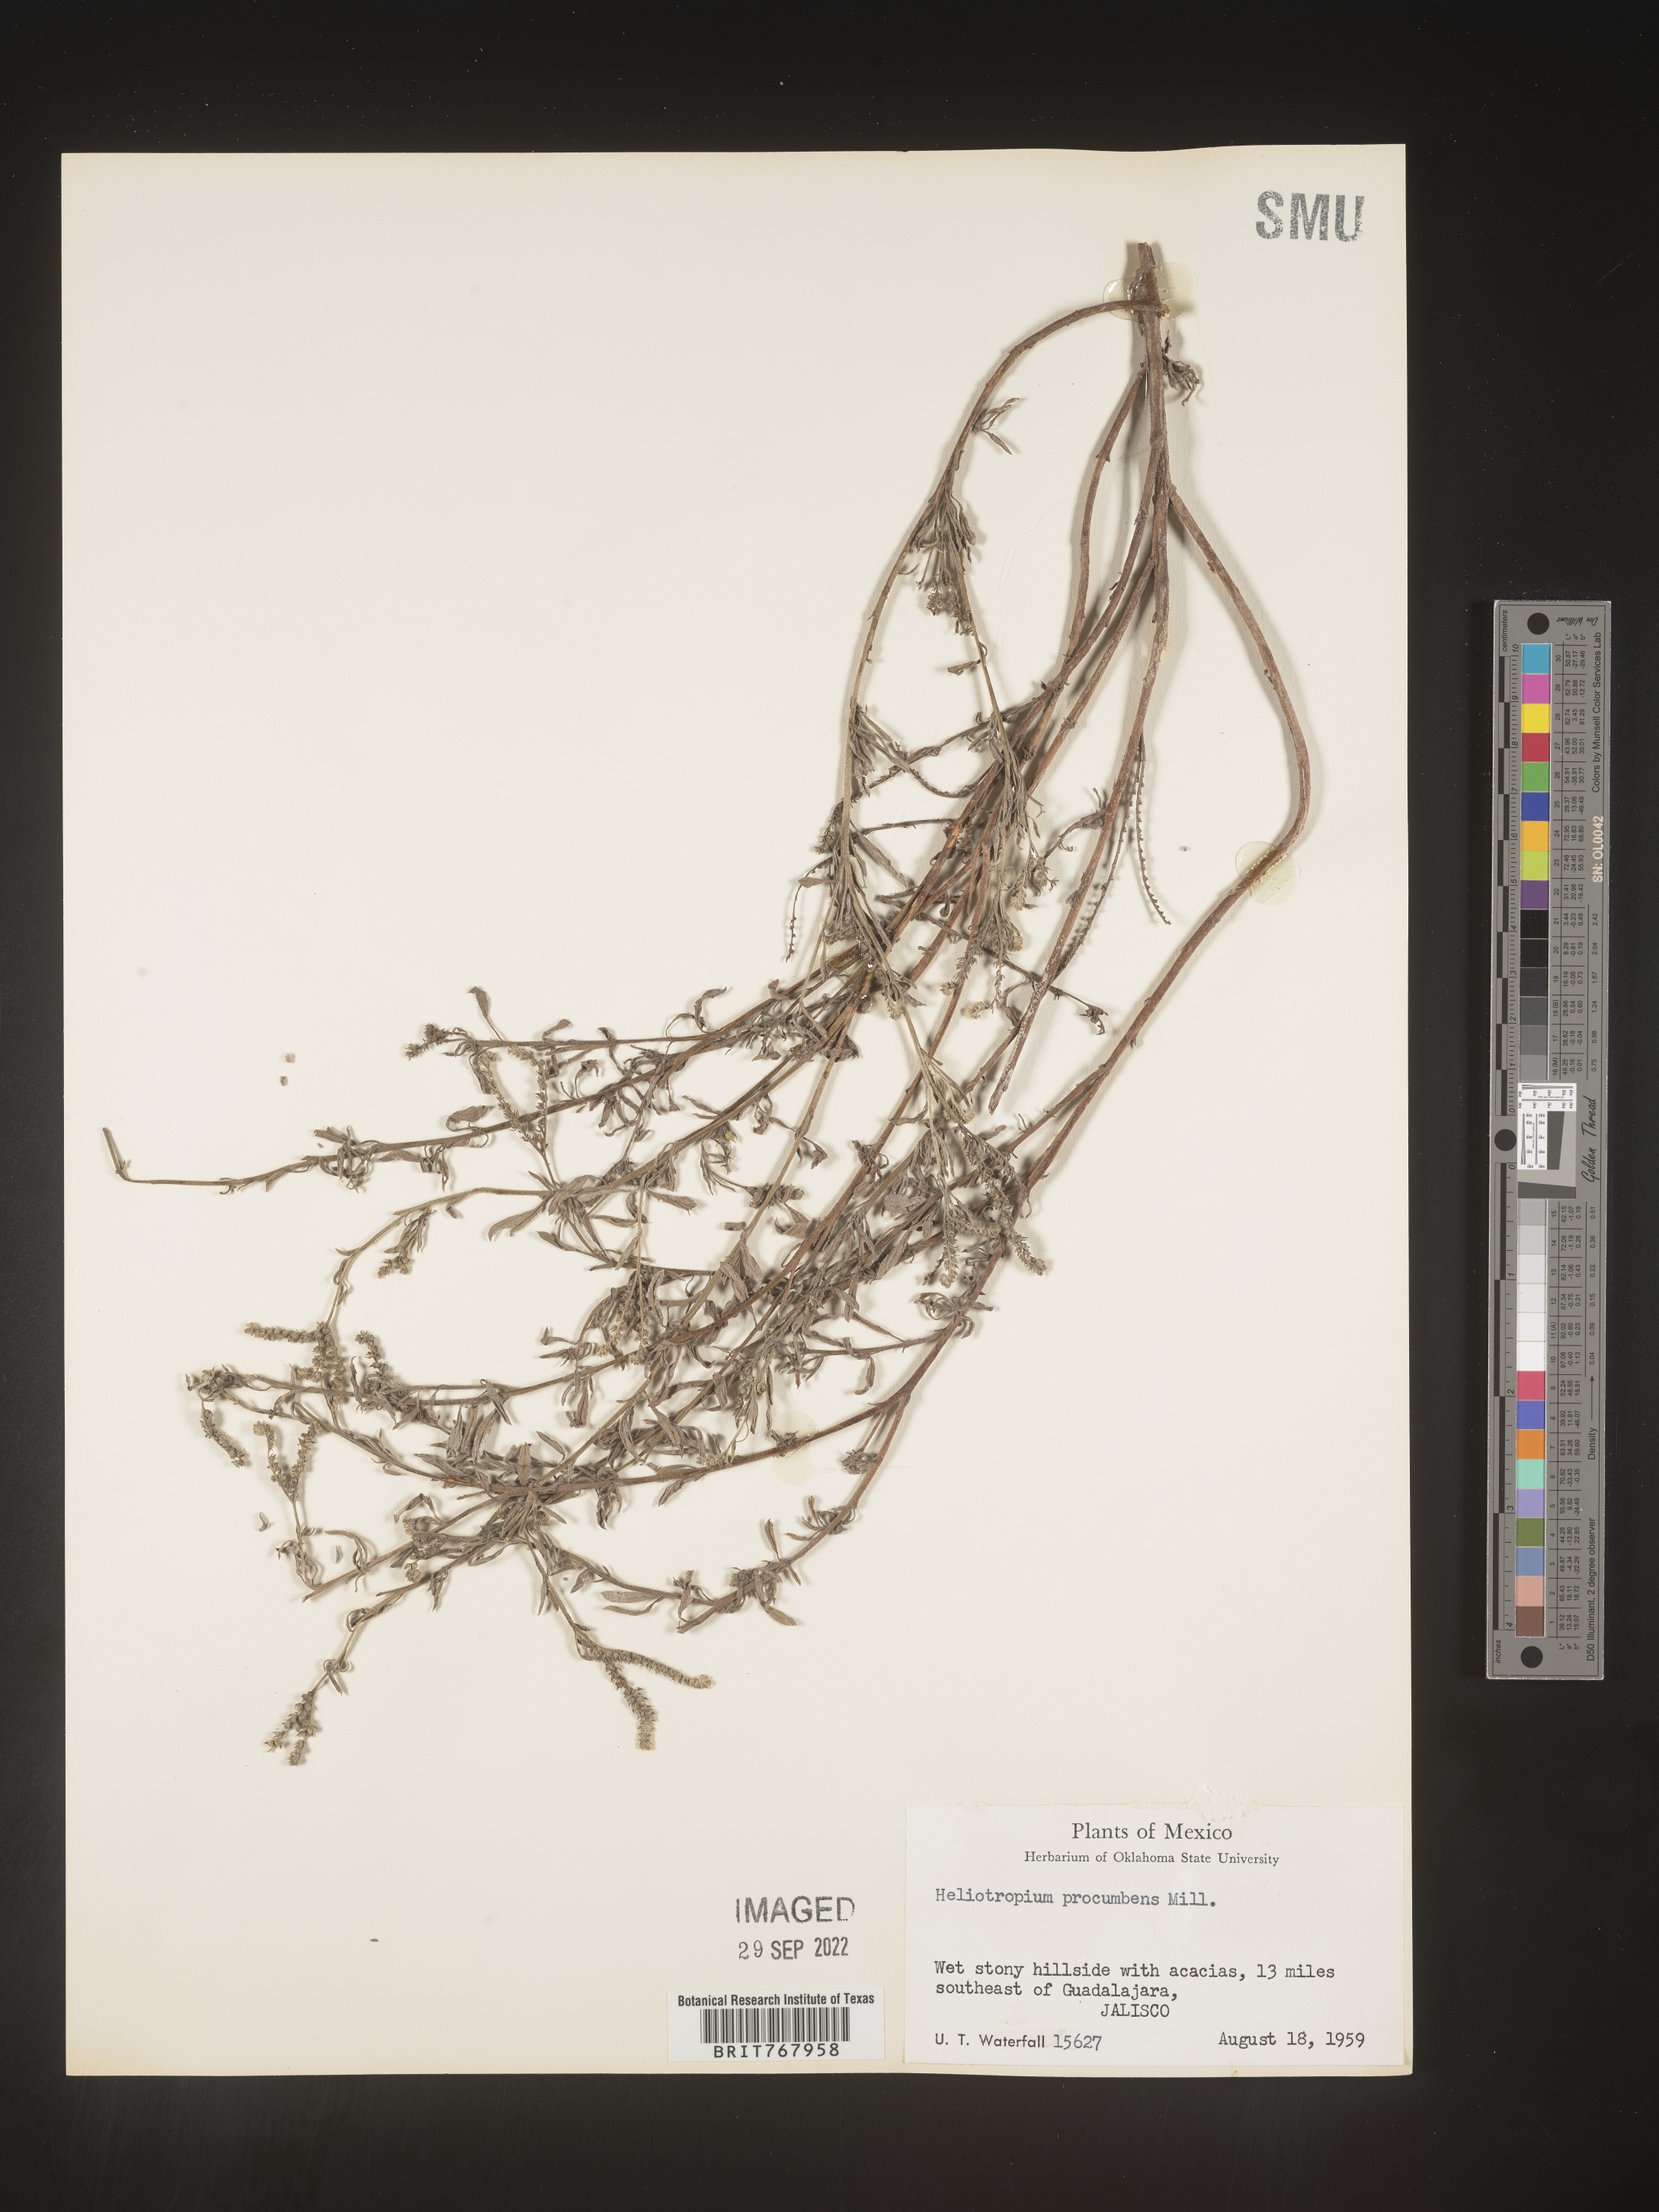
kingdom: Plantae
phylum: Tracheophyta
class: Magnoliopsida
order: Boraginales
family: Heliotropiaceae
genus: Heliotropium
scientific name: Heliotropium
